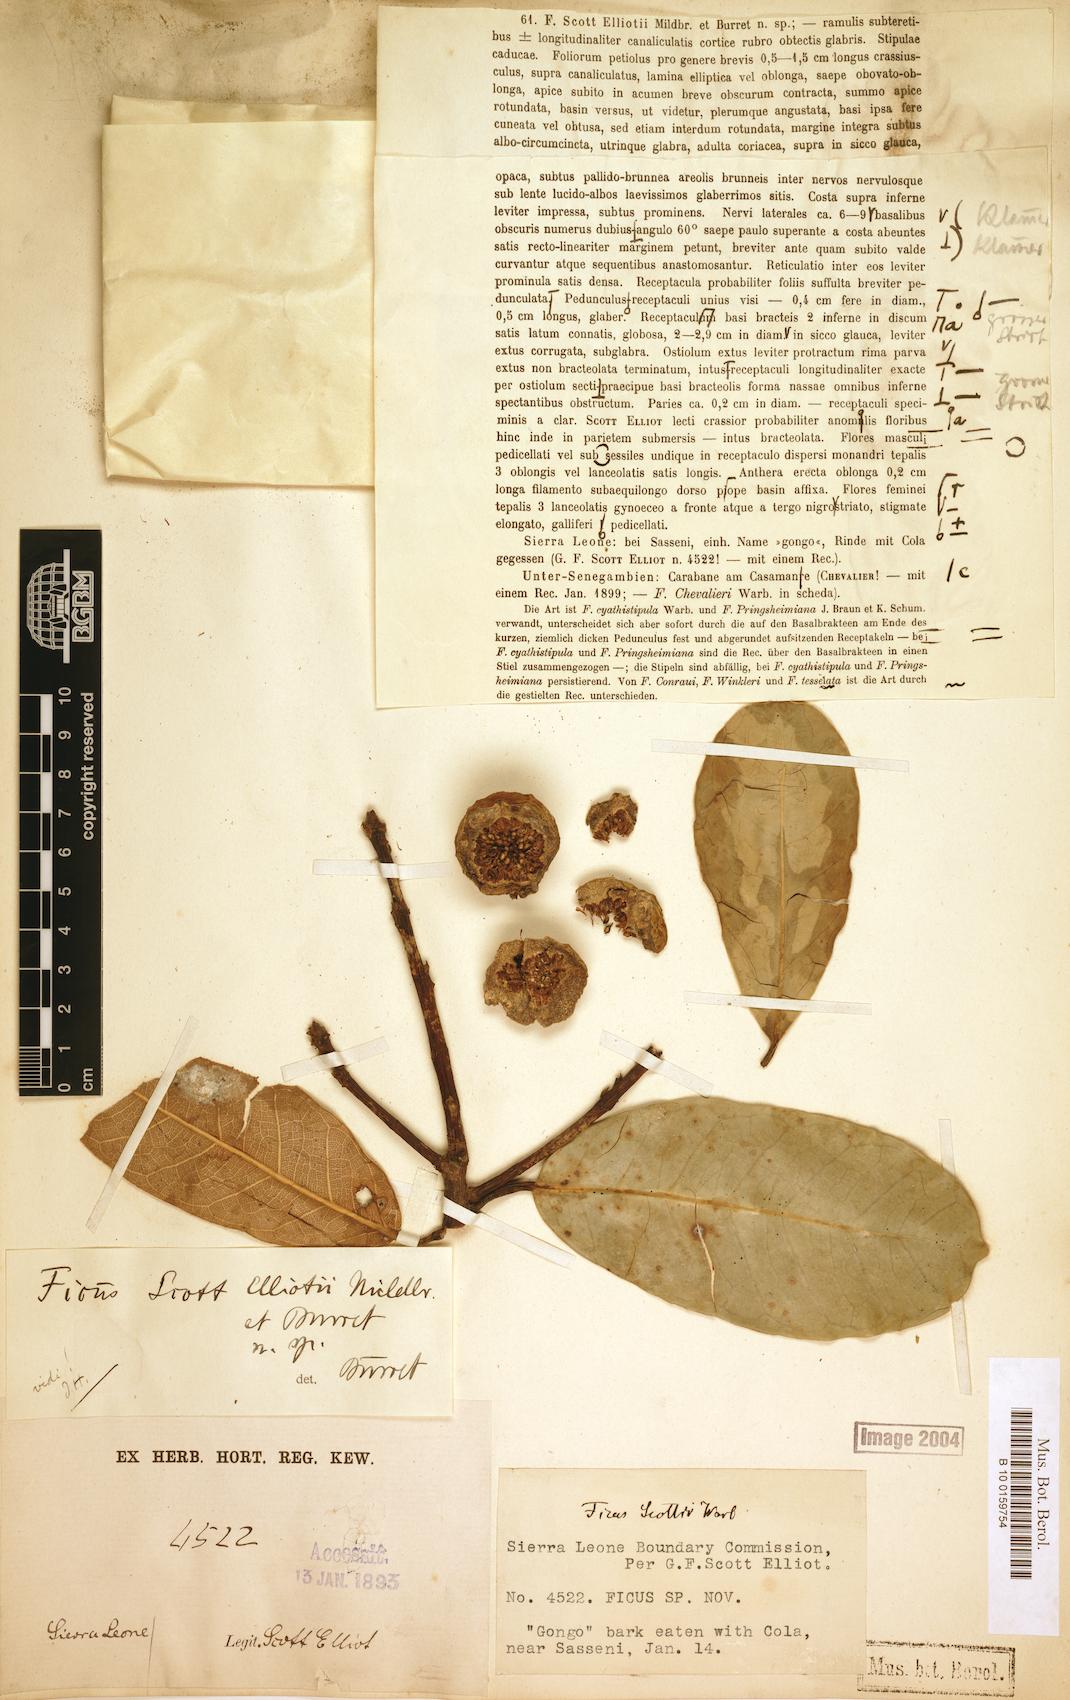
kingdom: Plantae
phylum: Tracheophyta
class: Magnoliopsida
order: Rosales
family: Moraceae
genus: Ficus
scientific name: Ficus scott-elliottii
